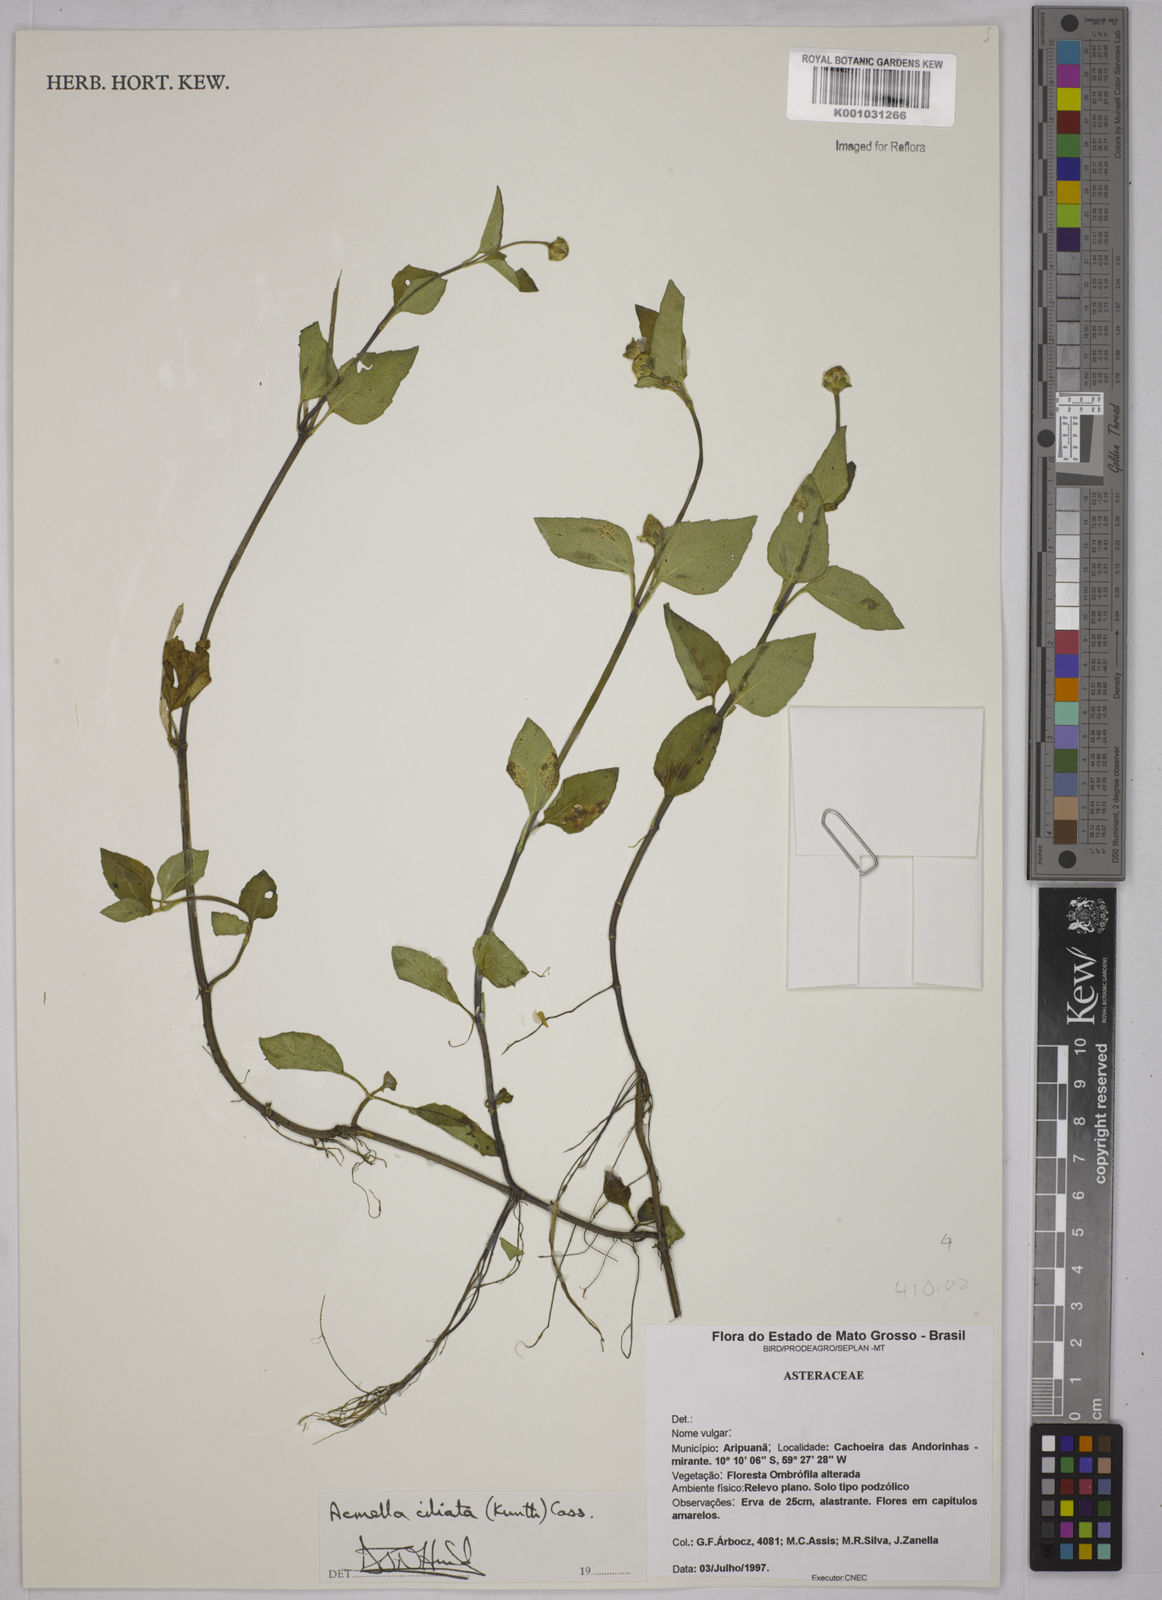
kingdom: Plantae
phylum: Tracheophyta
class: Magnoliopsida
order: Asterales
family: Asteraceae
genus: Acmella
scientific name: Acmella ciliata
